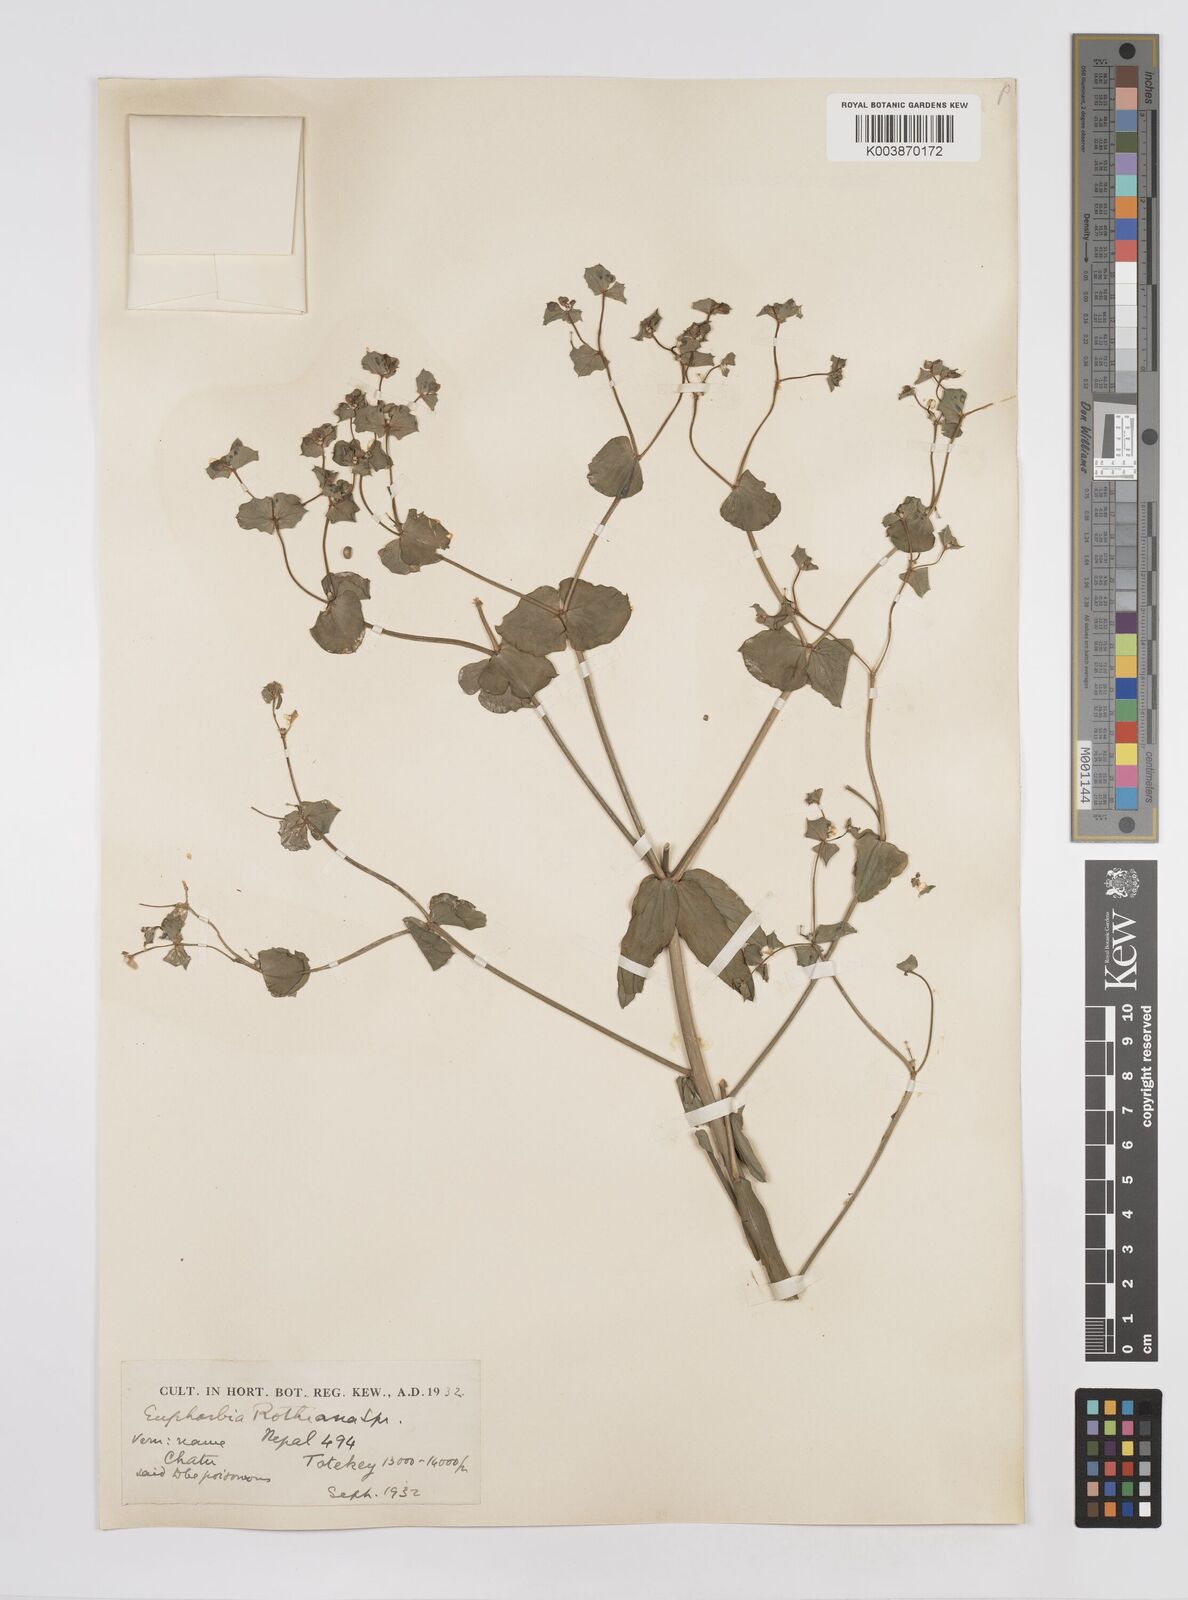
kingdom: Plantae
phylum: Tracheophyta
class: Magnoliopsida
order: Malpighiales
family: Euphorbiaceae
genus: Euphorbia
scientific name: Euphorbia rothiana
